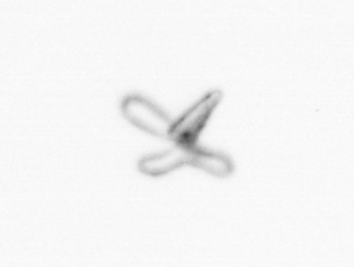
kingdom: Animalia
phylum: Mollusca
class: Gastropoda
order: Pteropoda
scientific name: Pteropoda
